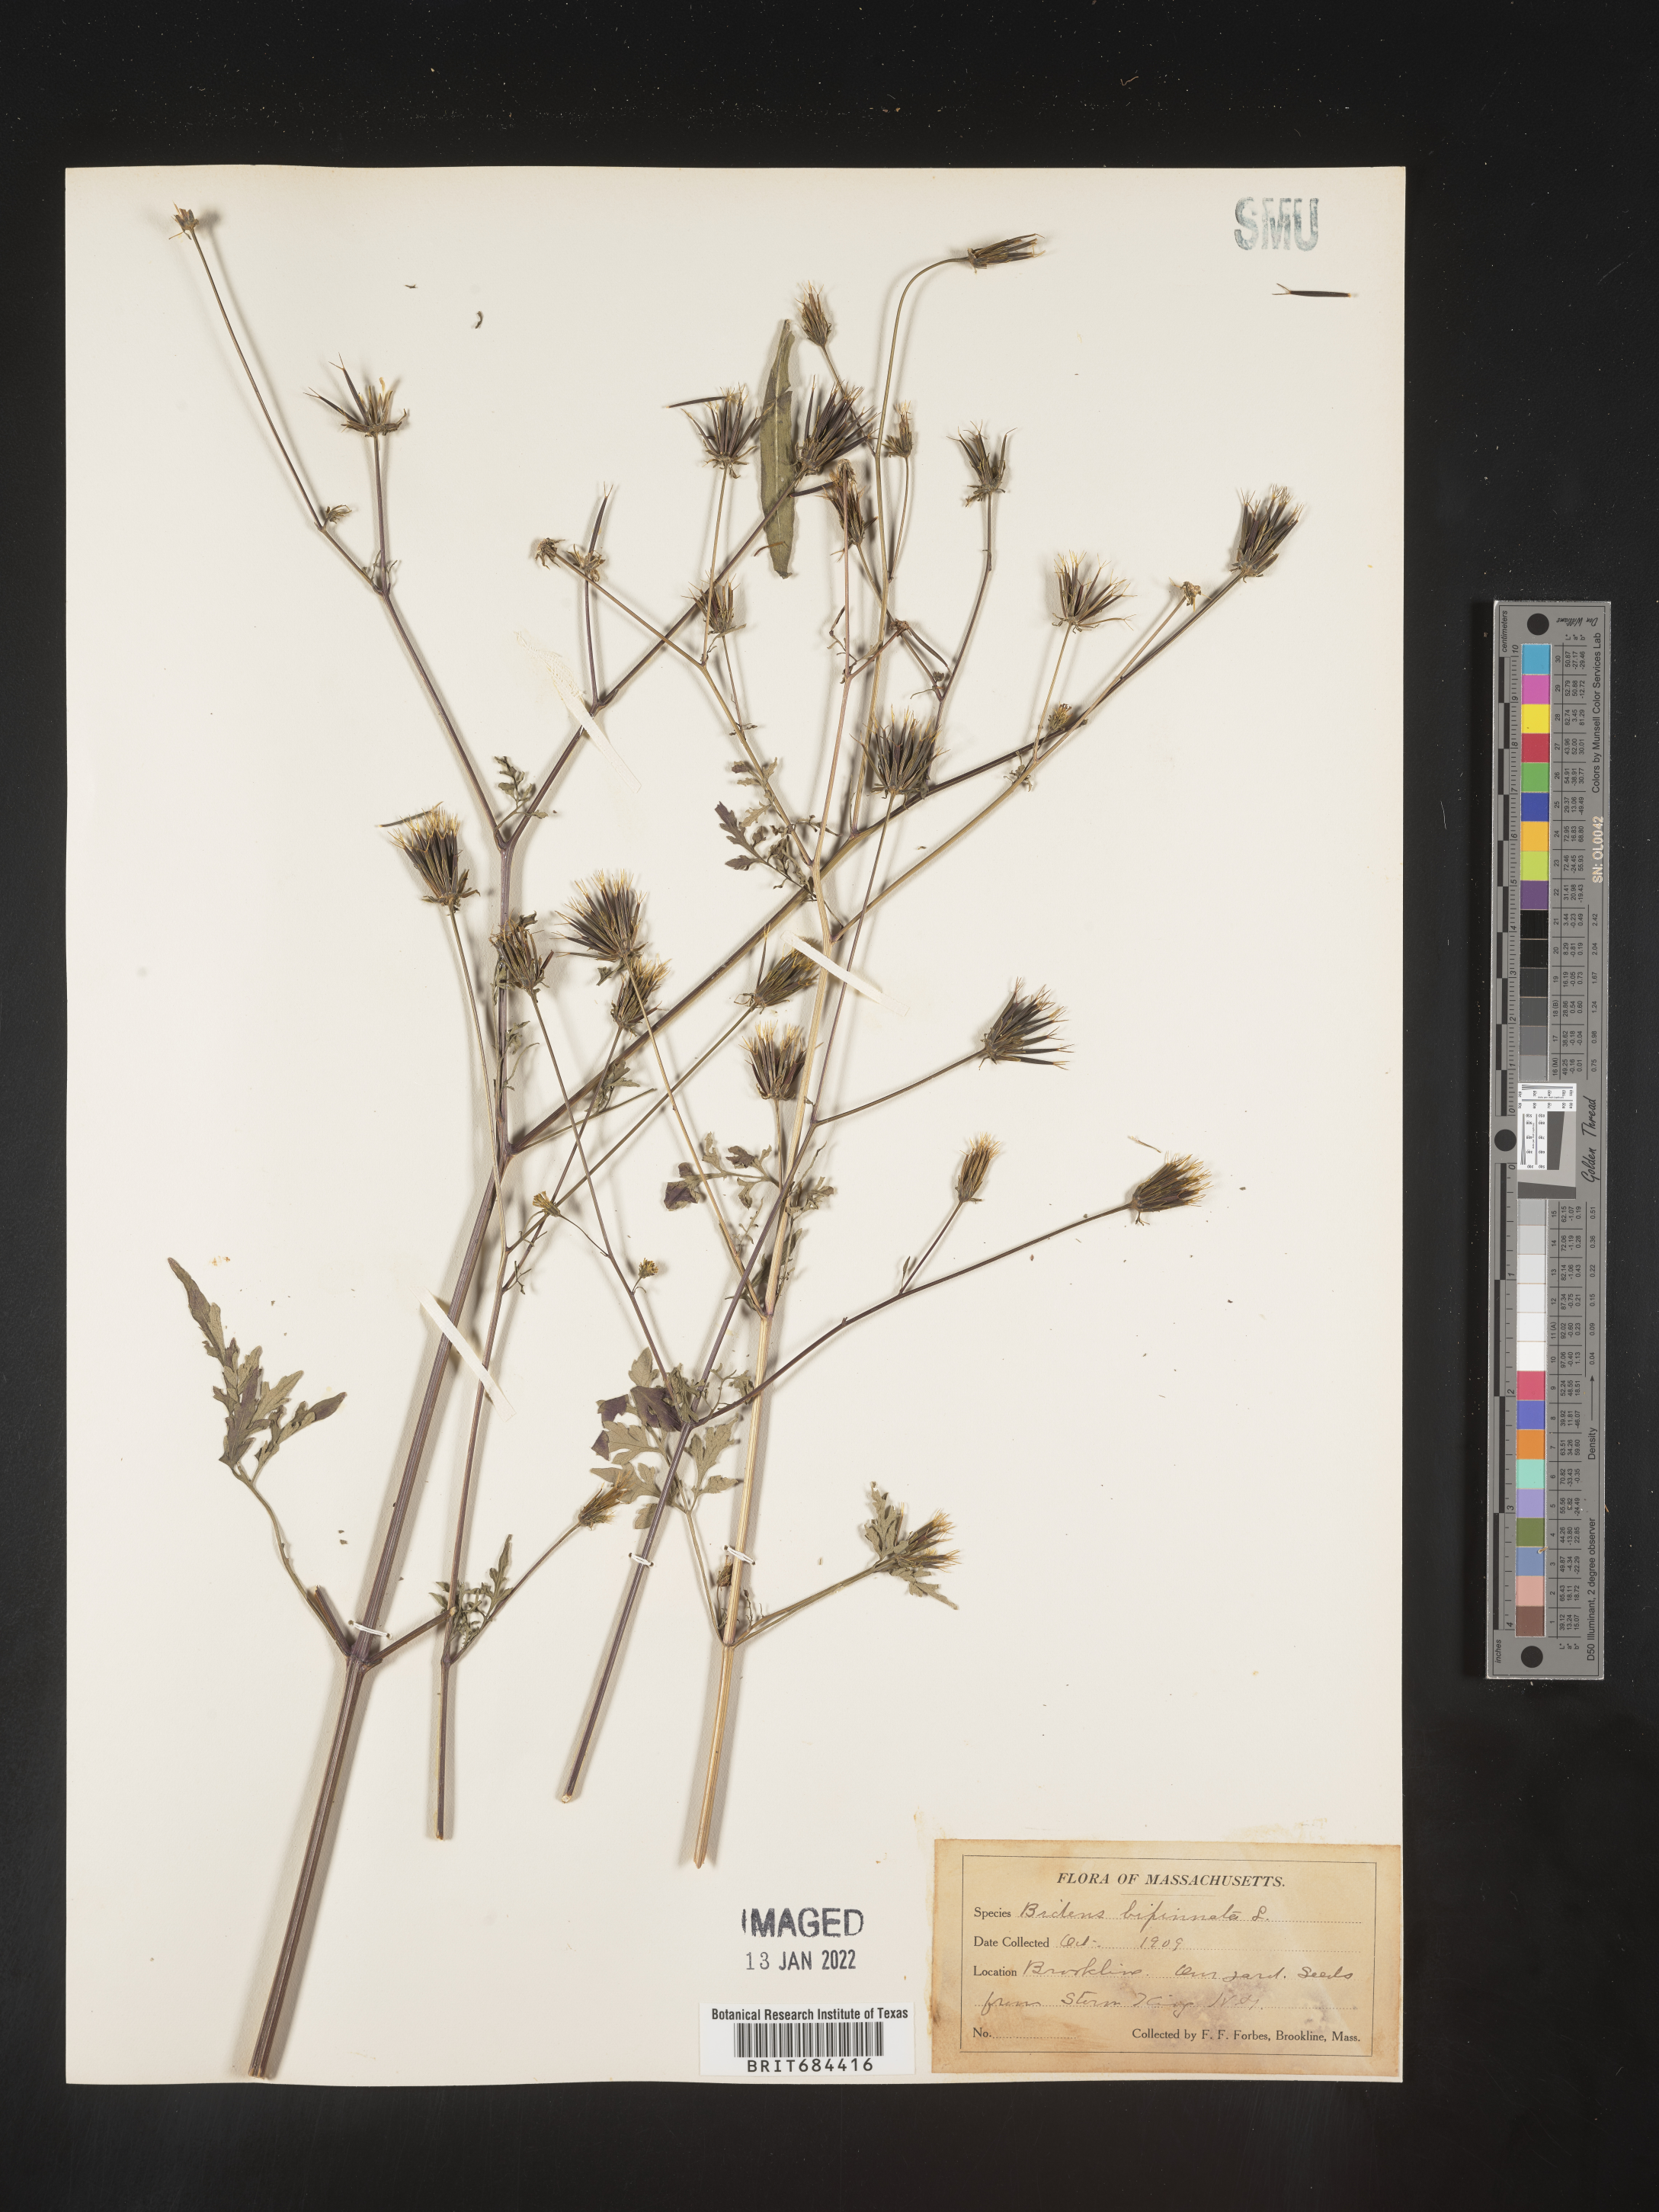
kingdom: Plantae
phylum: Tracheophyta
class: Magnoliopsida
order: Asterales
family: Asteraceae
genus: Bidens
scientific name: Bidens bipinnata
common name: Spanish-needles
